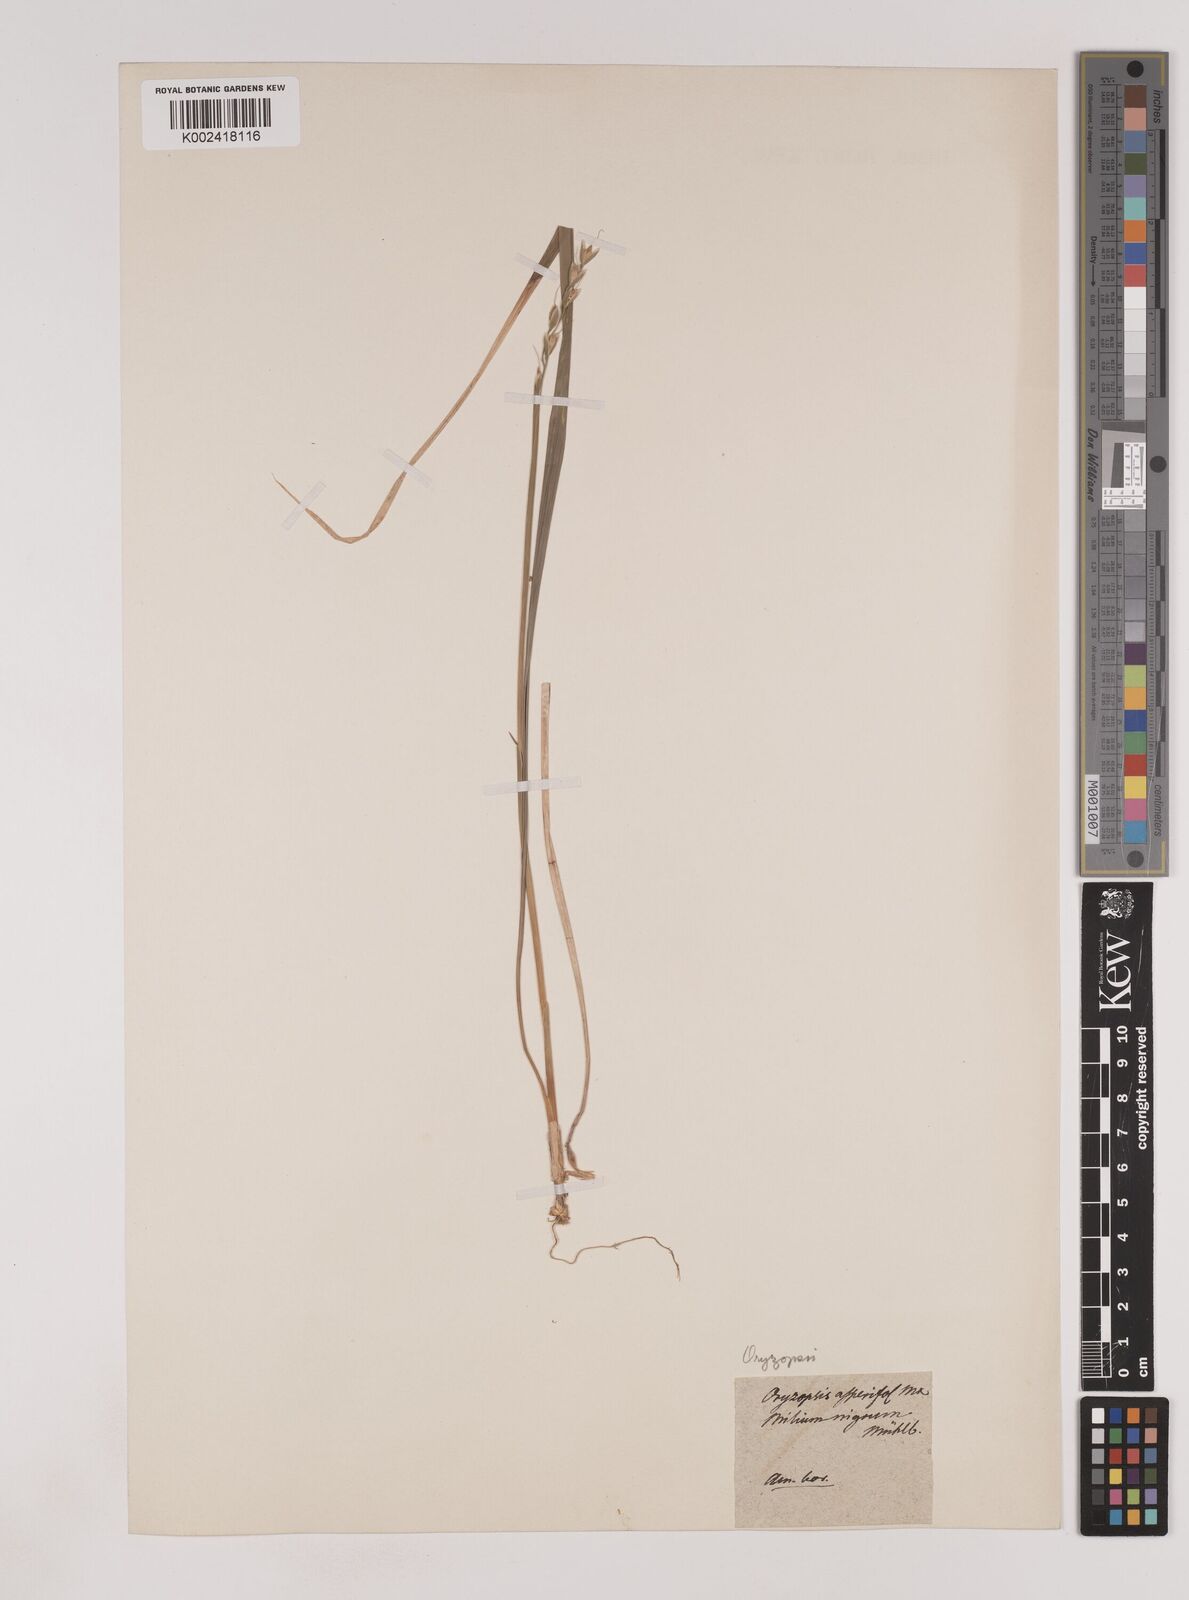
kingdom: Plantae
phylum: Tracheophyta
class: Liliopsida
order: Poales
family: Poaceae
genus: Oryzopsis
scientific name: Oryzopsis asperifolia
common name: Rough-leaved mountain rice
